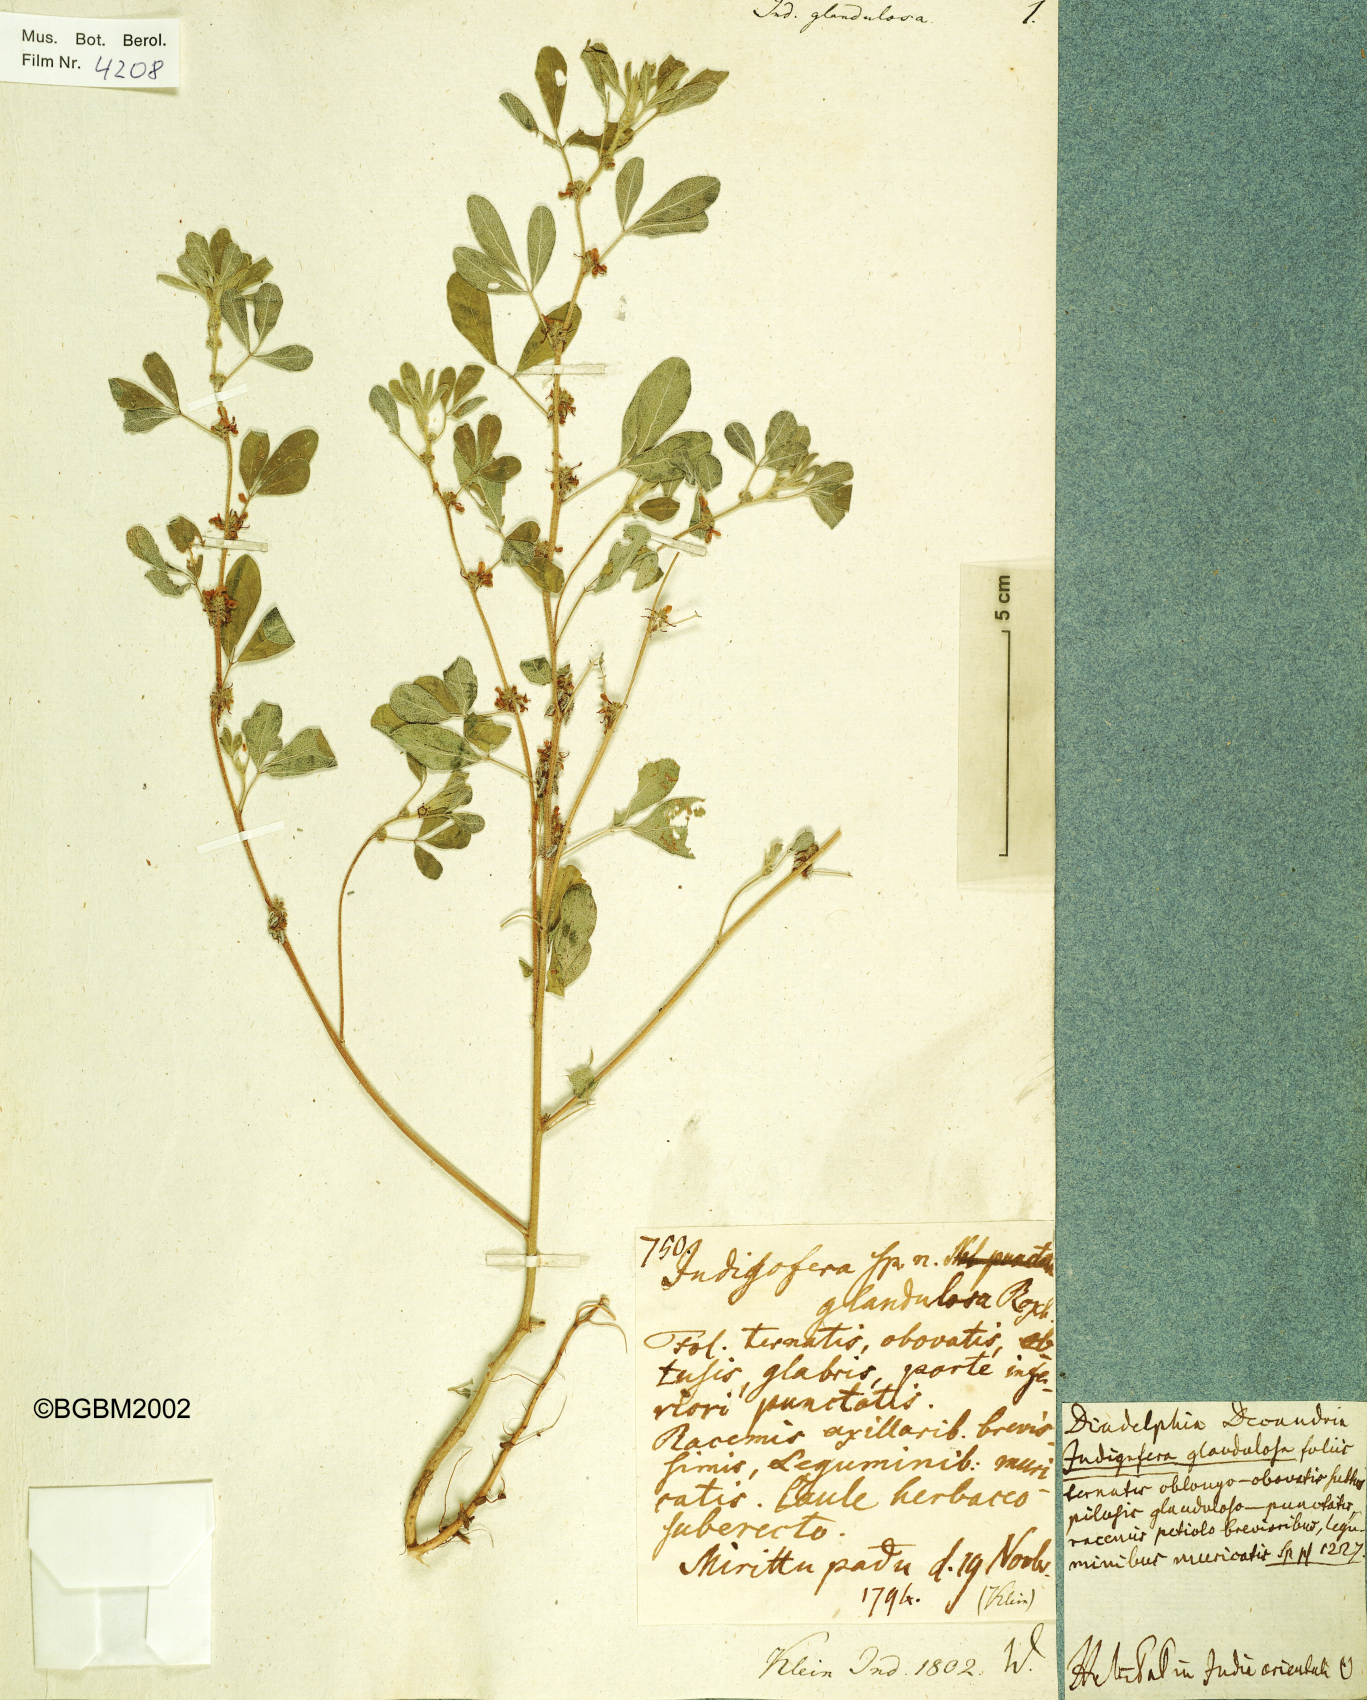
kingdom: Plantae
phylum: Tracheophyta
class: Magnoliopsida
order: Fabales
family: Fabaceae
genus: Indigofera
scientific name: Indigofera glandulosa
